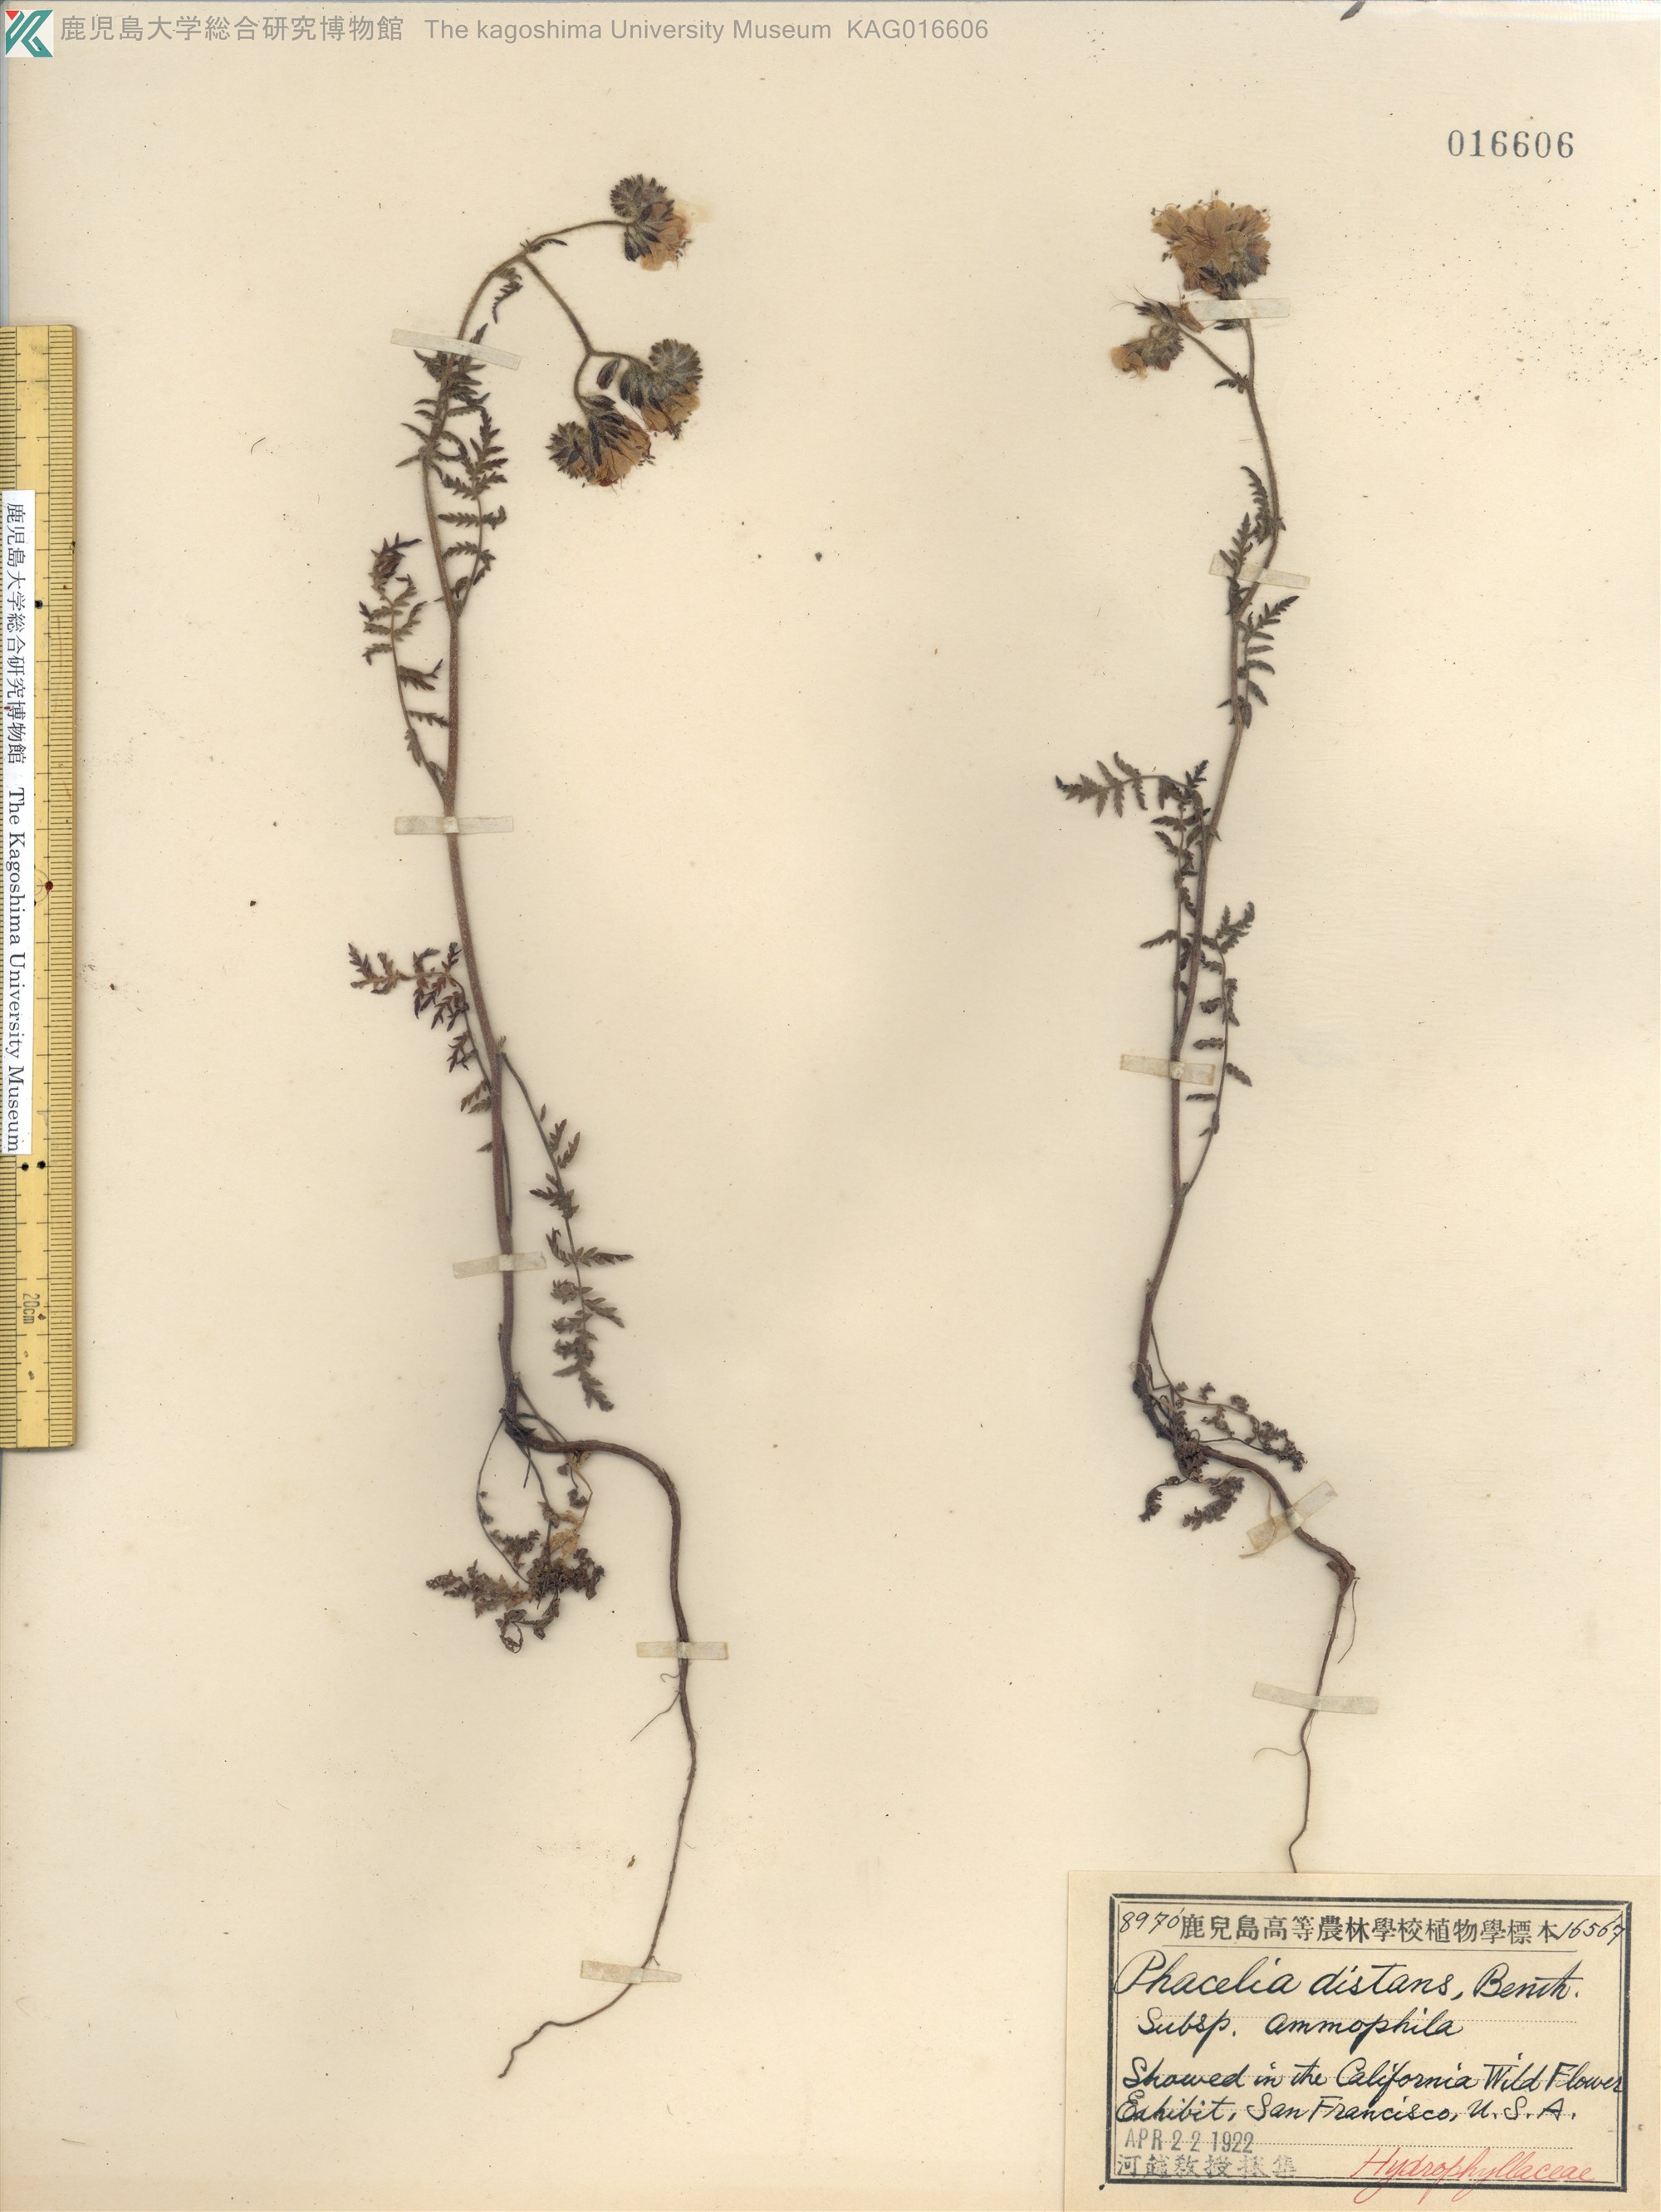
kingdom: Plantae
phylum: Tracheophyta
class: Magnoliopsida
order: Boraginales
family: Hydrophyllaceae
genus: Phacelia
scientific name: Phacelia distans
